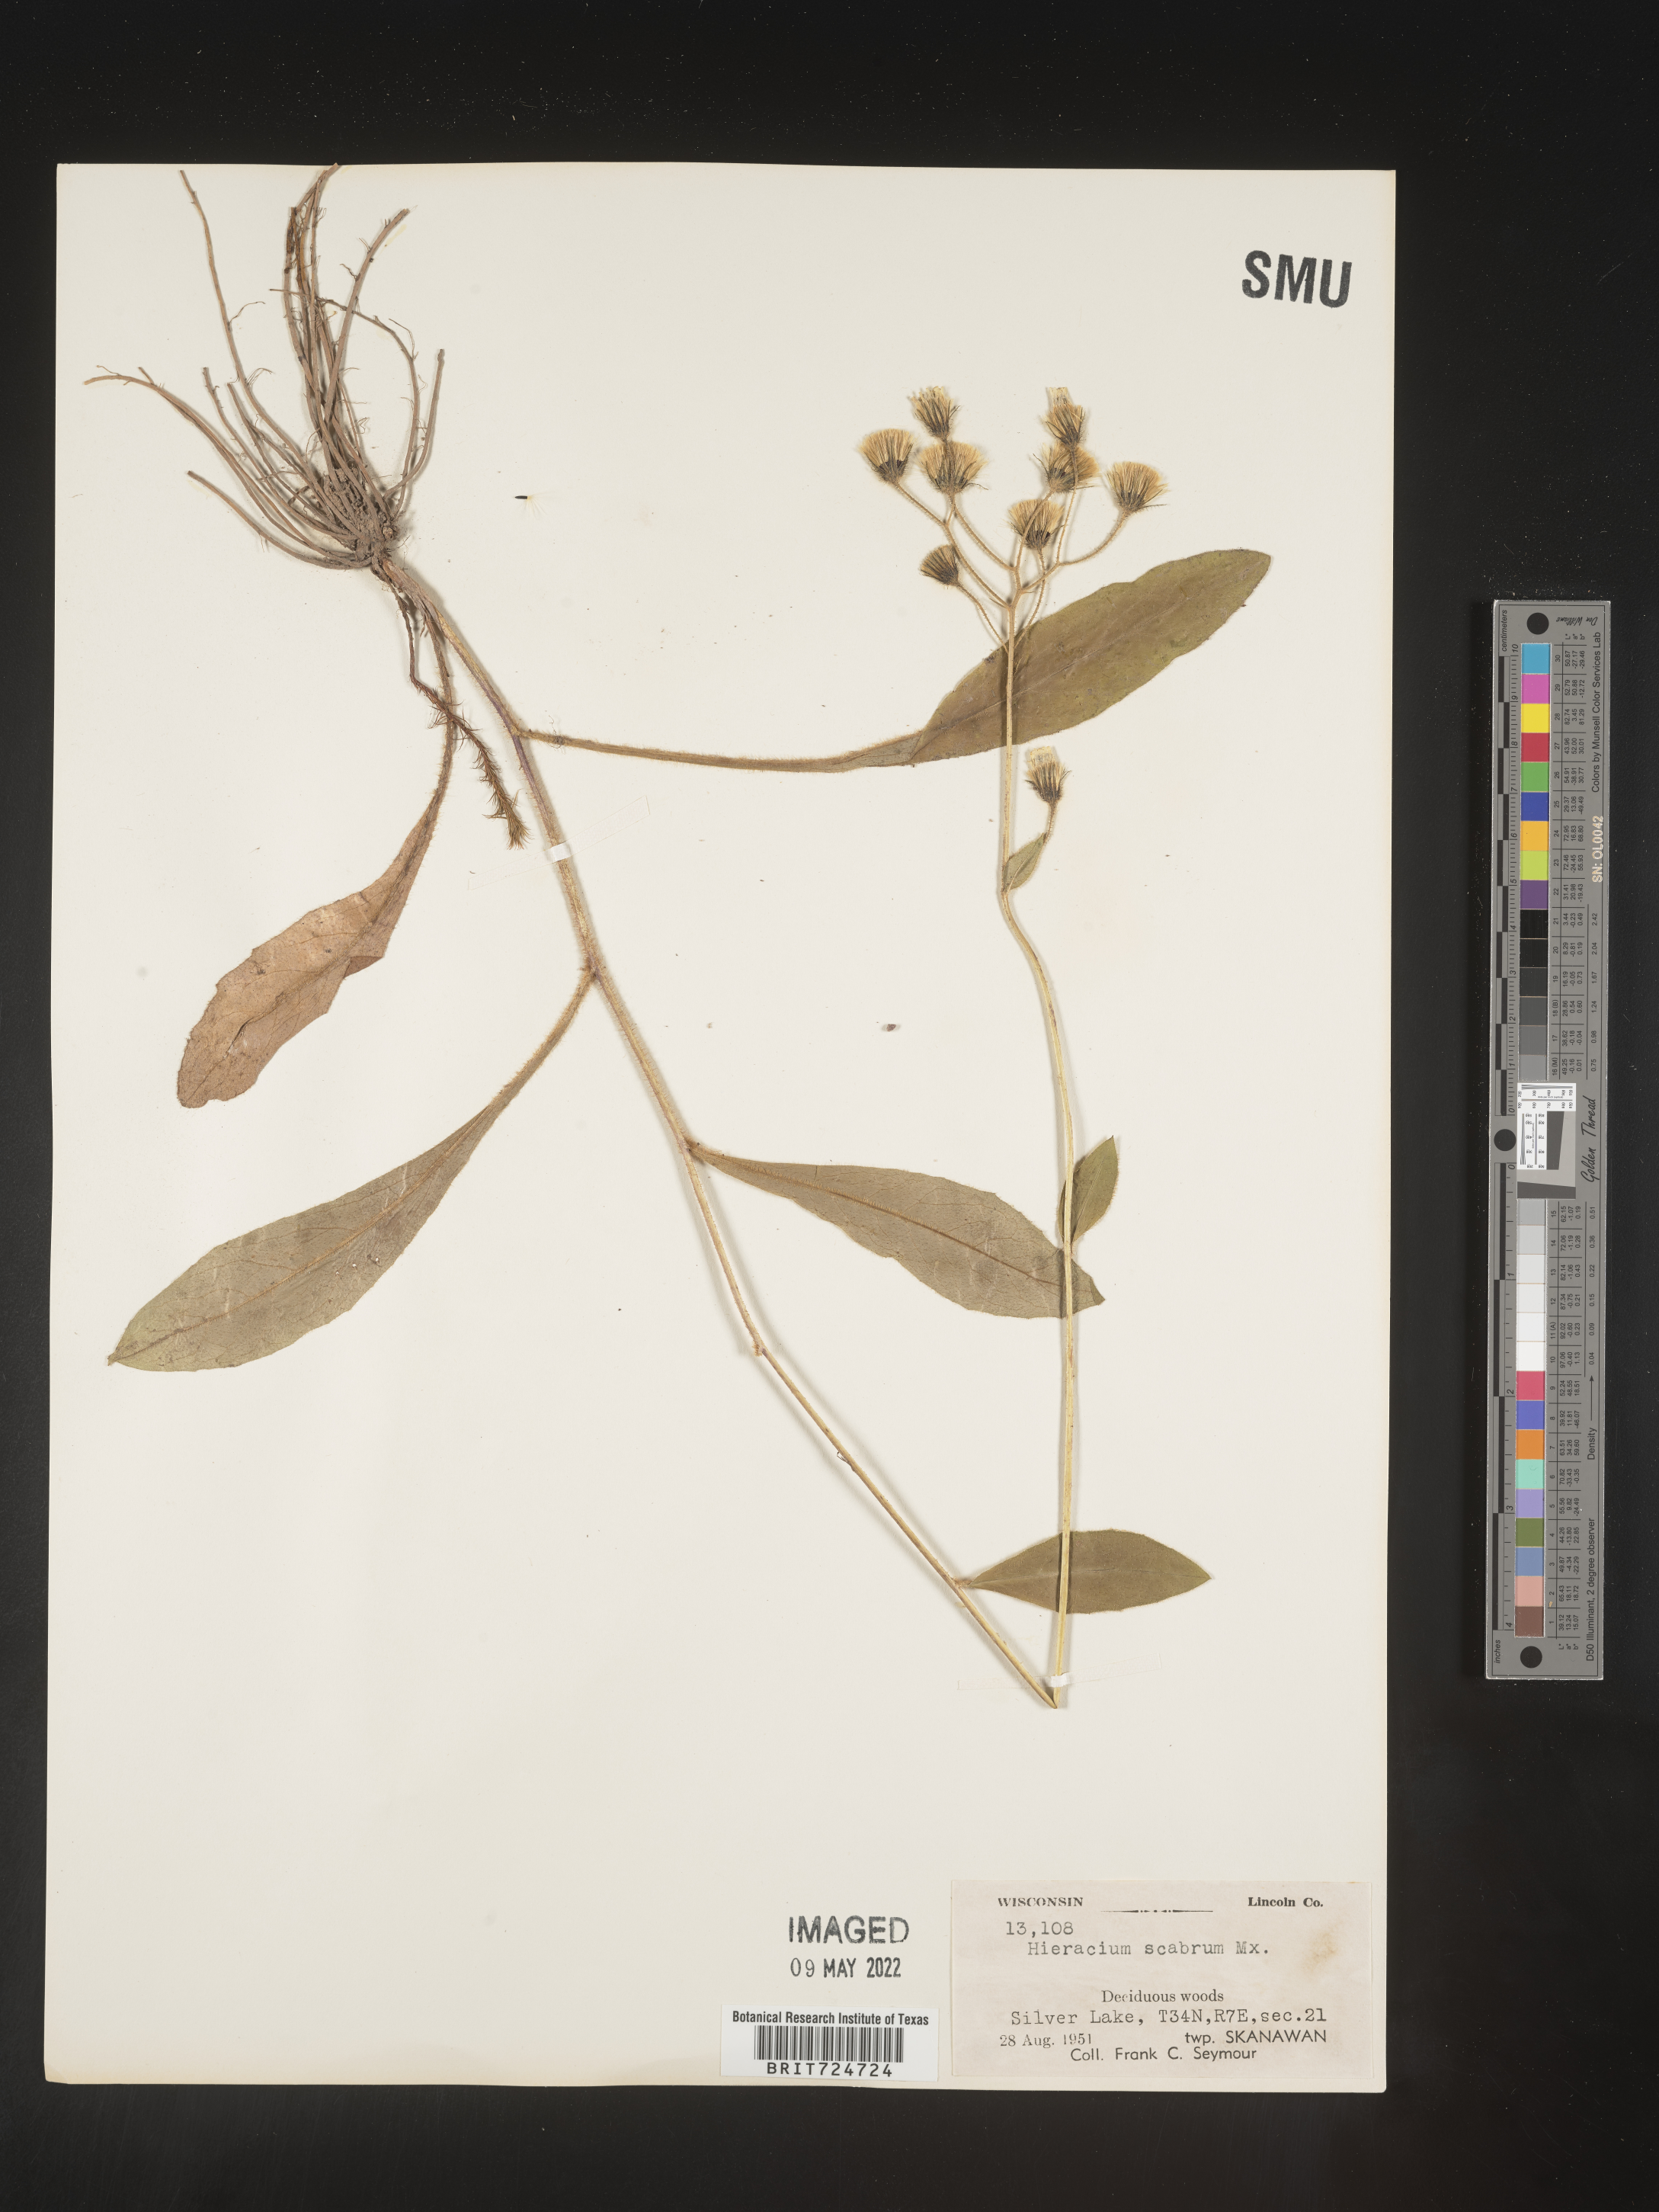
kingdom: Plantae
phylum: Tracheophyta
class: Magnoliopsida
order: Asterales
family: Asteraceae
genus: Hieracium
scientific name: Hieracium scabrum
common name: Rough hawkweed
